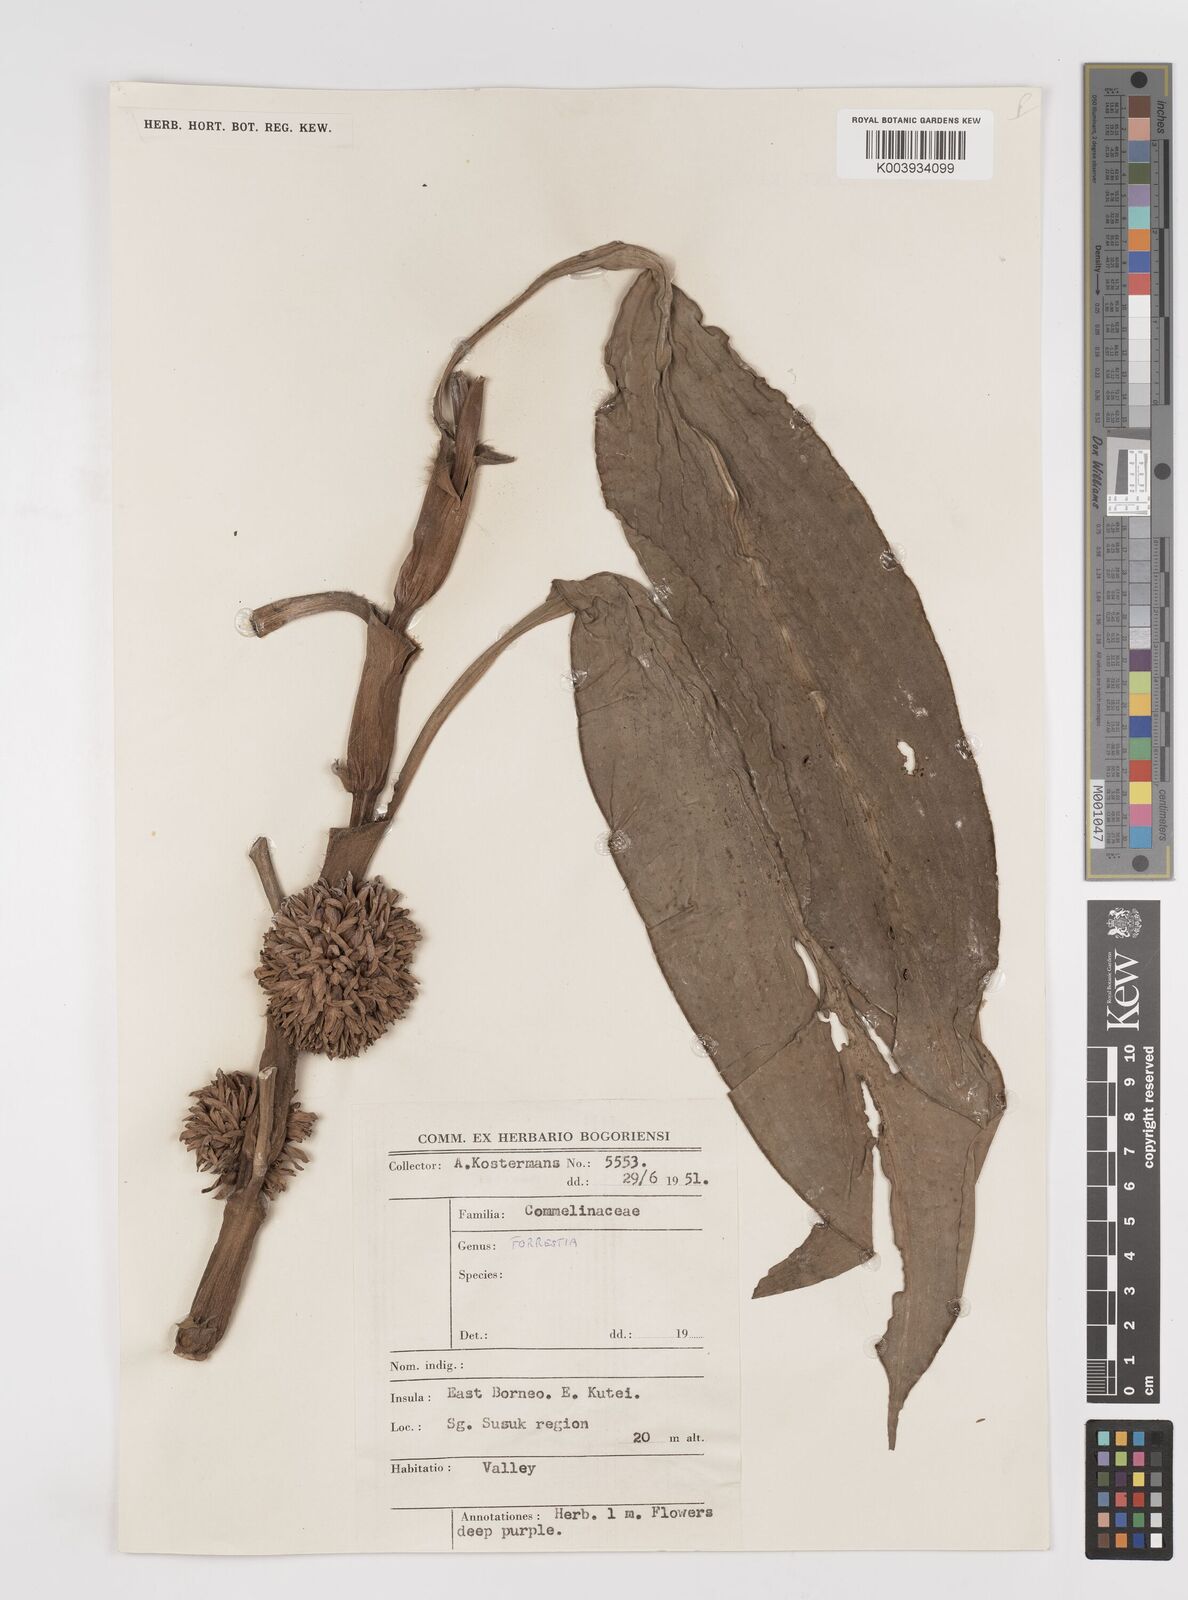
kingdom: Plantae
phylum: Tracheophyta
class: Liliopsida
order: Commelinales
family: Commelinaceae
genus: Amischotolype
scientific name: Amischotolype
